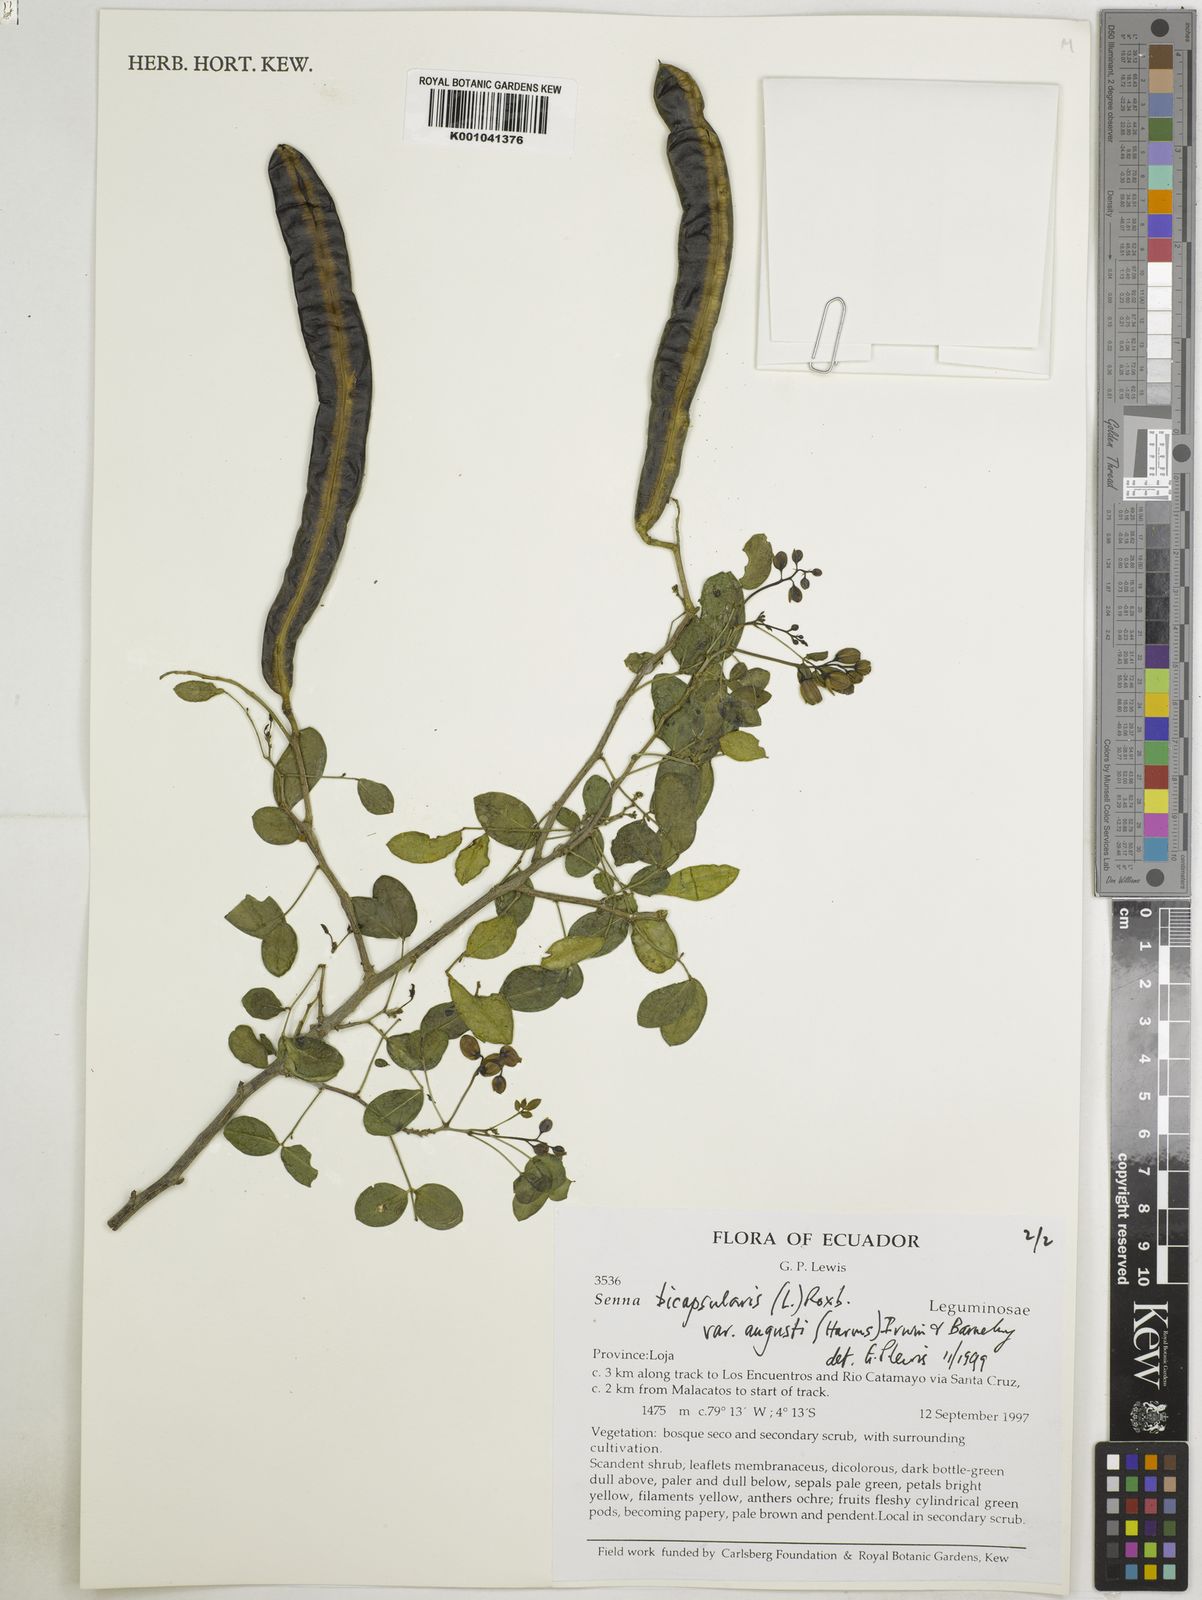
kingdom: Plantae
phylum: Tracheophyta
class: Magnoliopsida
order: Fabales
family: Fabaceae
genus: Senna
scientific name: Senna bicapsularis
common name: Christmasbush
